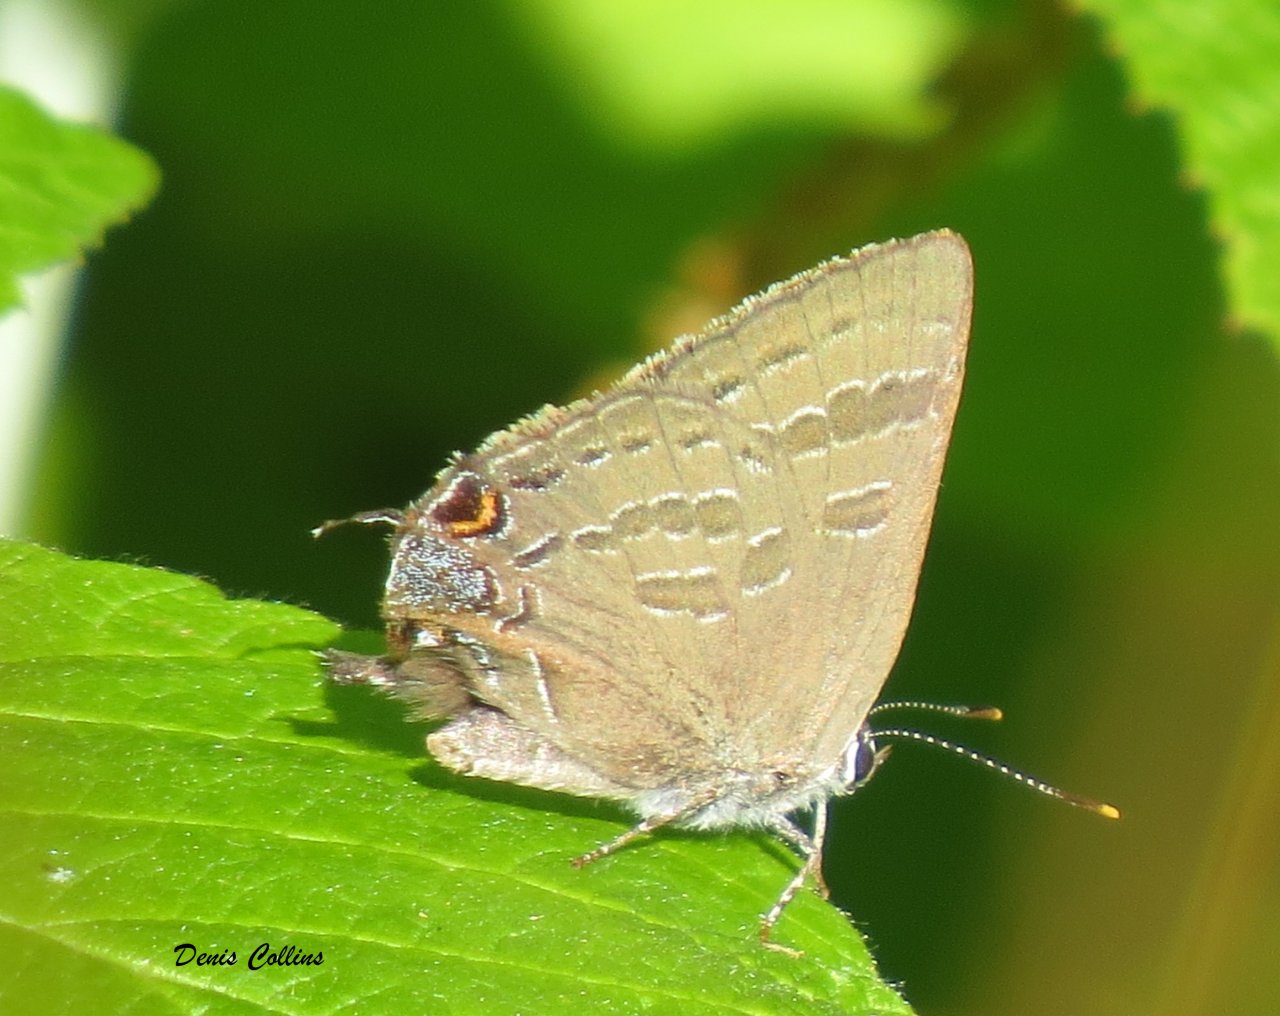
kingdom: Animalia
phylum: Arthropoda
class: Insecta
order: Lepidoptera
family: Lycaenidae
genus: Strymon
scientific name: Strymon caryaevorus
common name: Hickory Hairstreak
